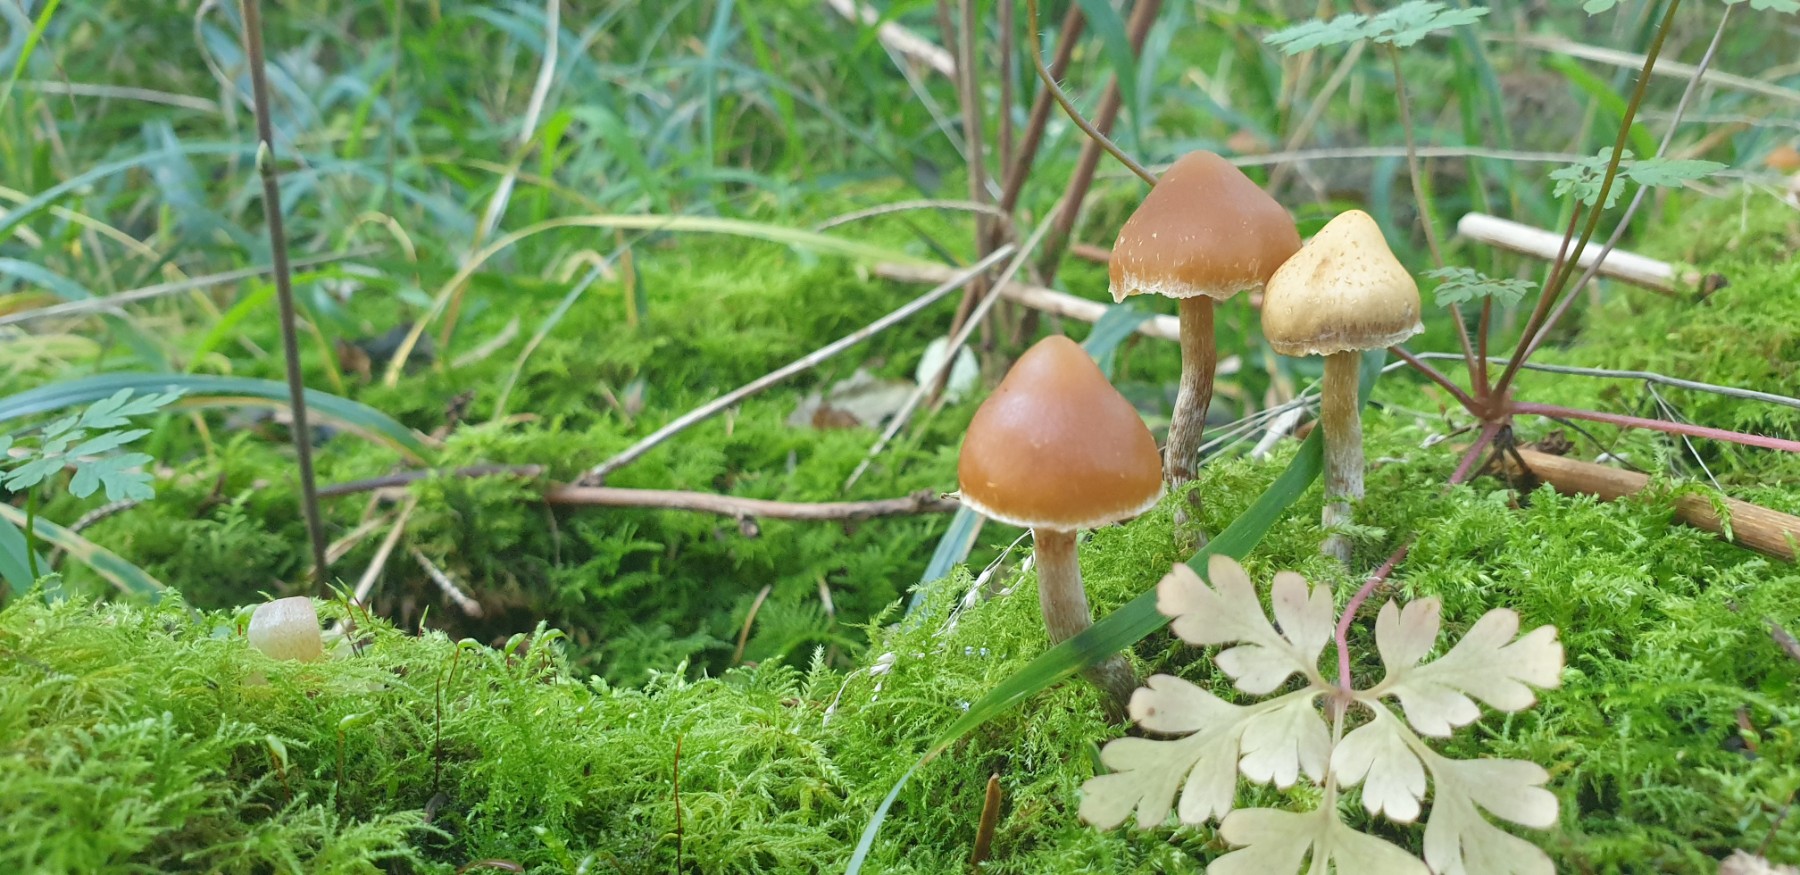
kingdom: Fungi
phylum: Basidiomycota
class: Agaricomycetes
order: Agaricales
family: Cortinariaceae
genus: Cortinarius
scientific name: Cortinarius
